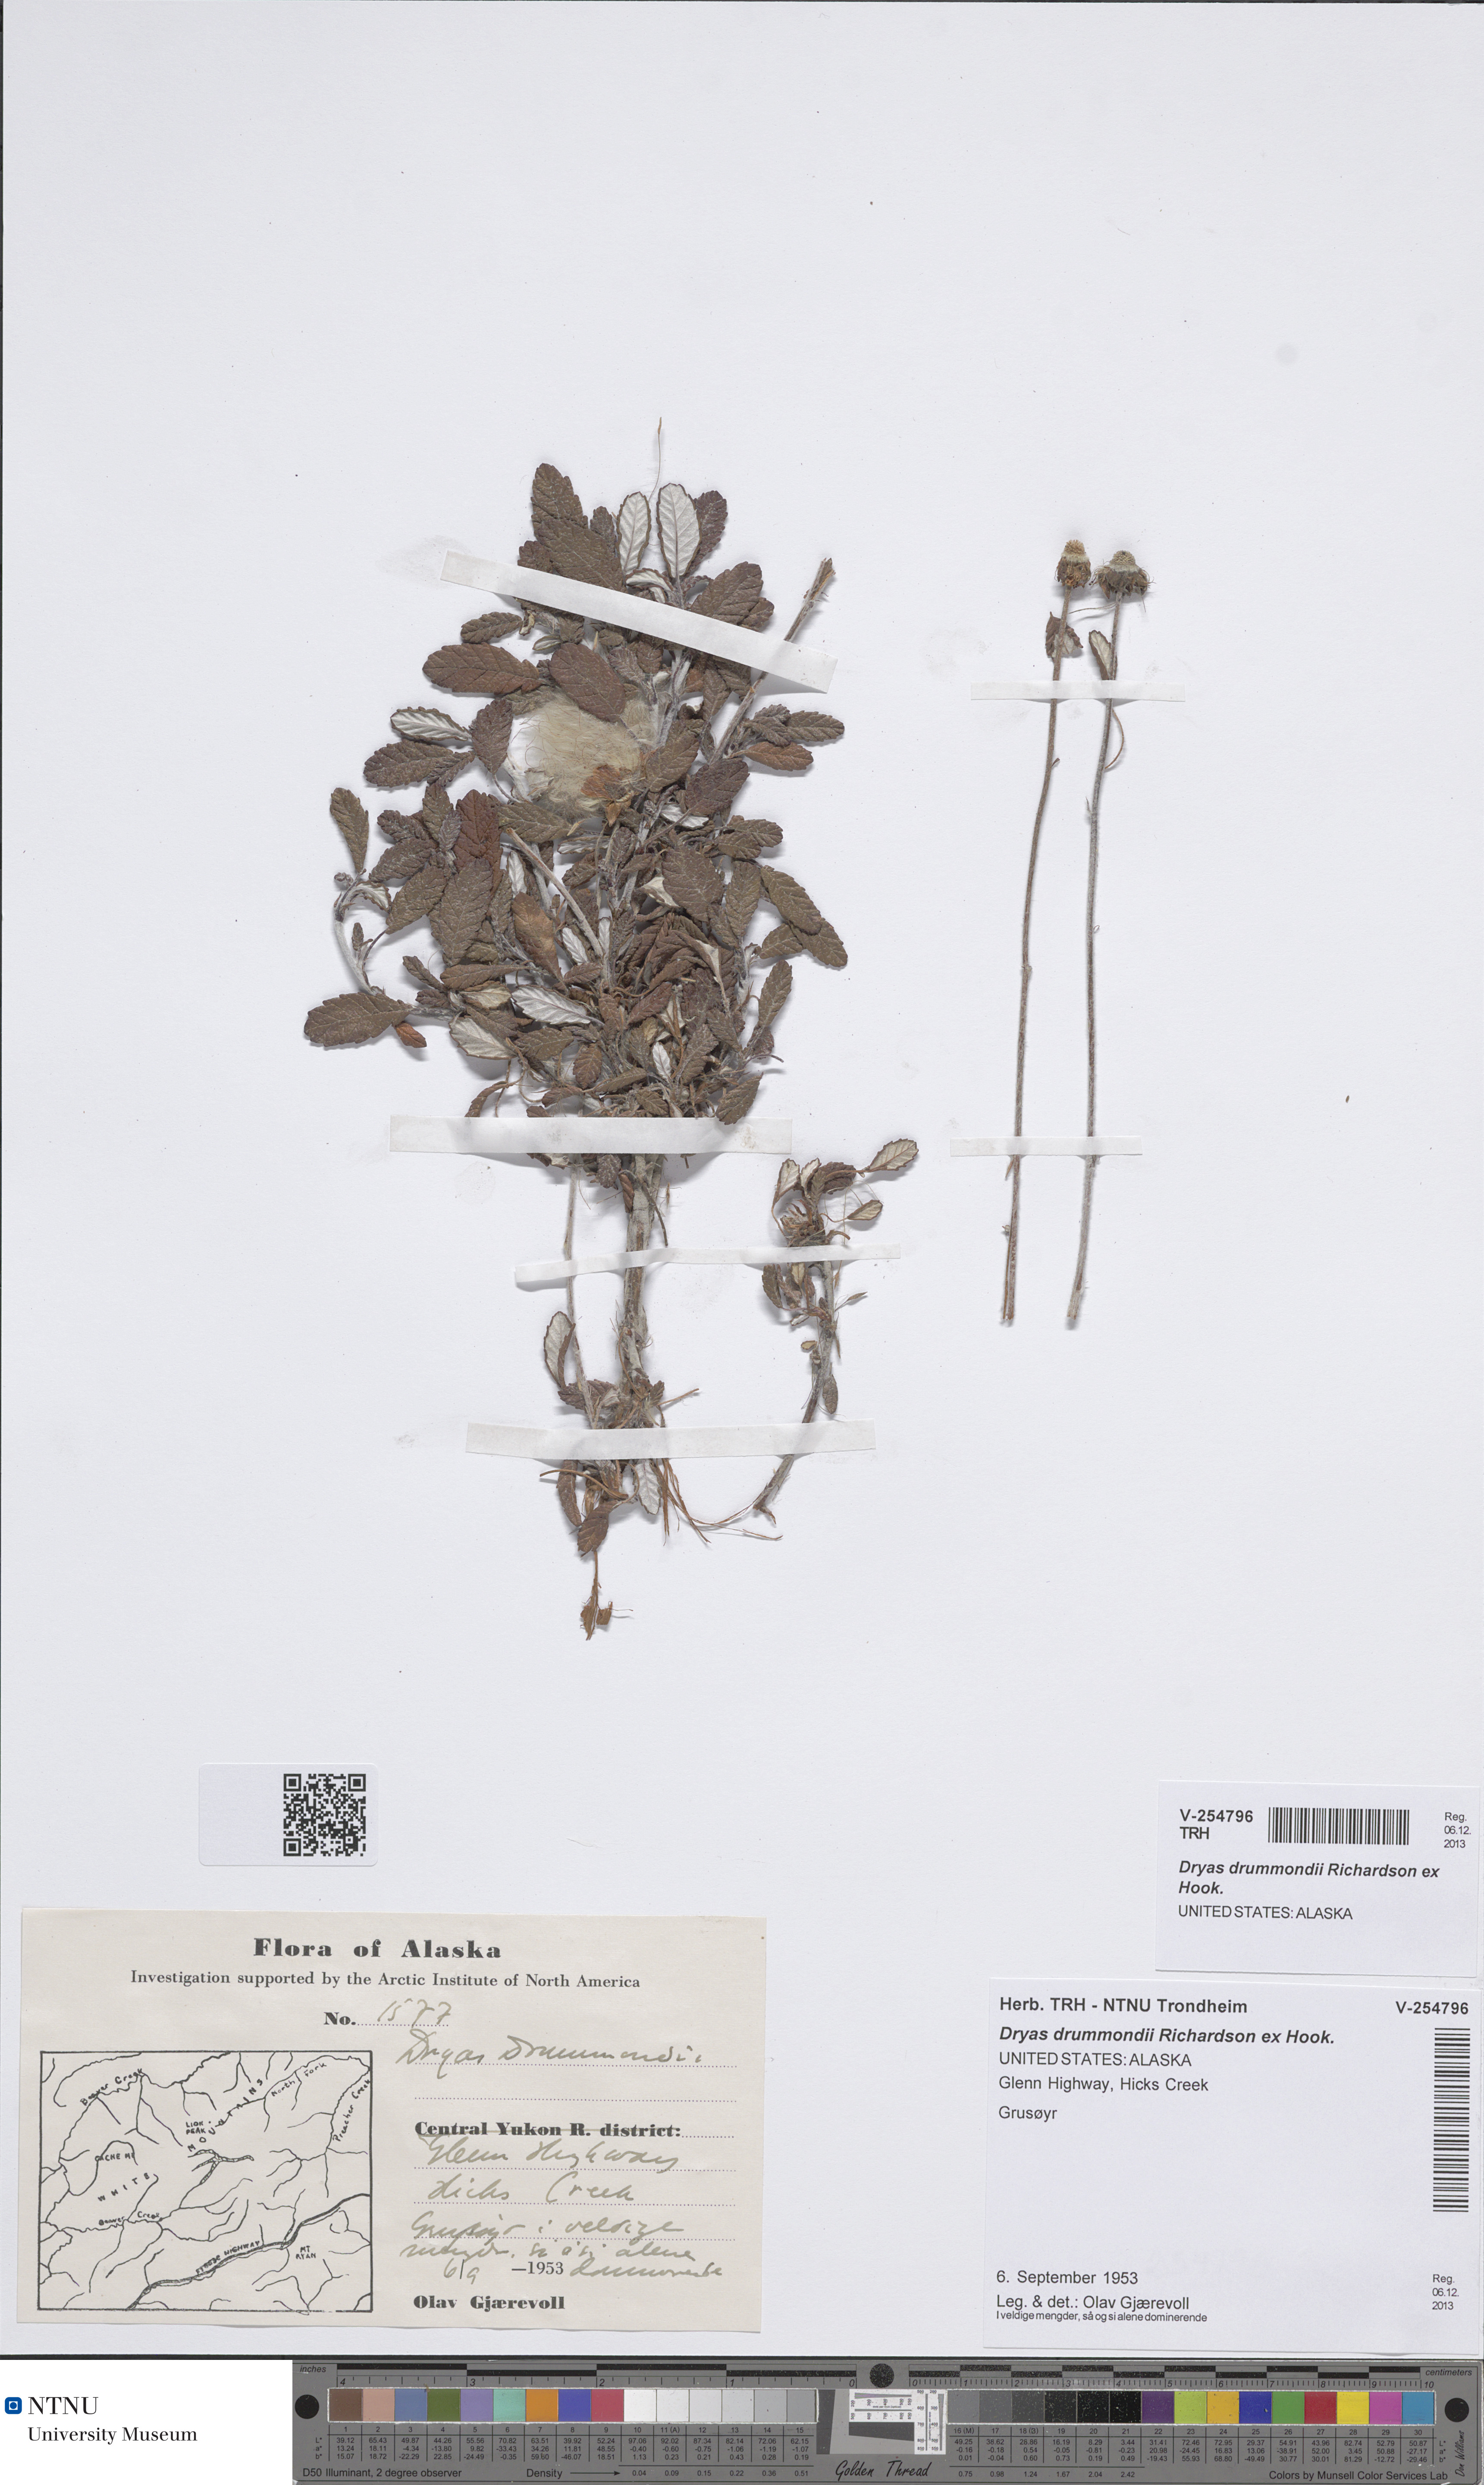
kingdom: Plantae
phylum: Tracheophyta
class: Magnoliopsida
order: Rosales
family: Rosaceae
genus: Dryas
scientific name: Dryas drummondii
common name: Drummond's dryad
